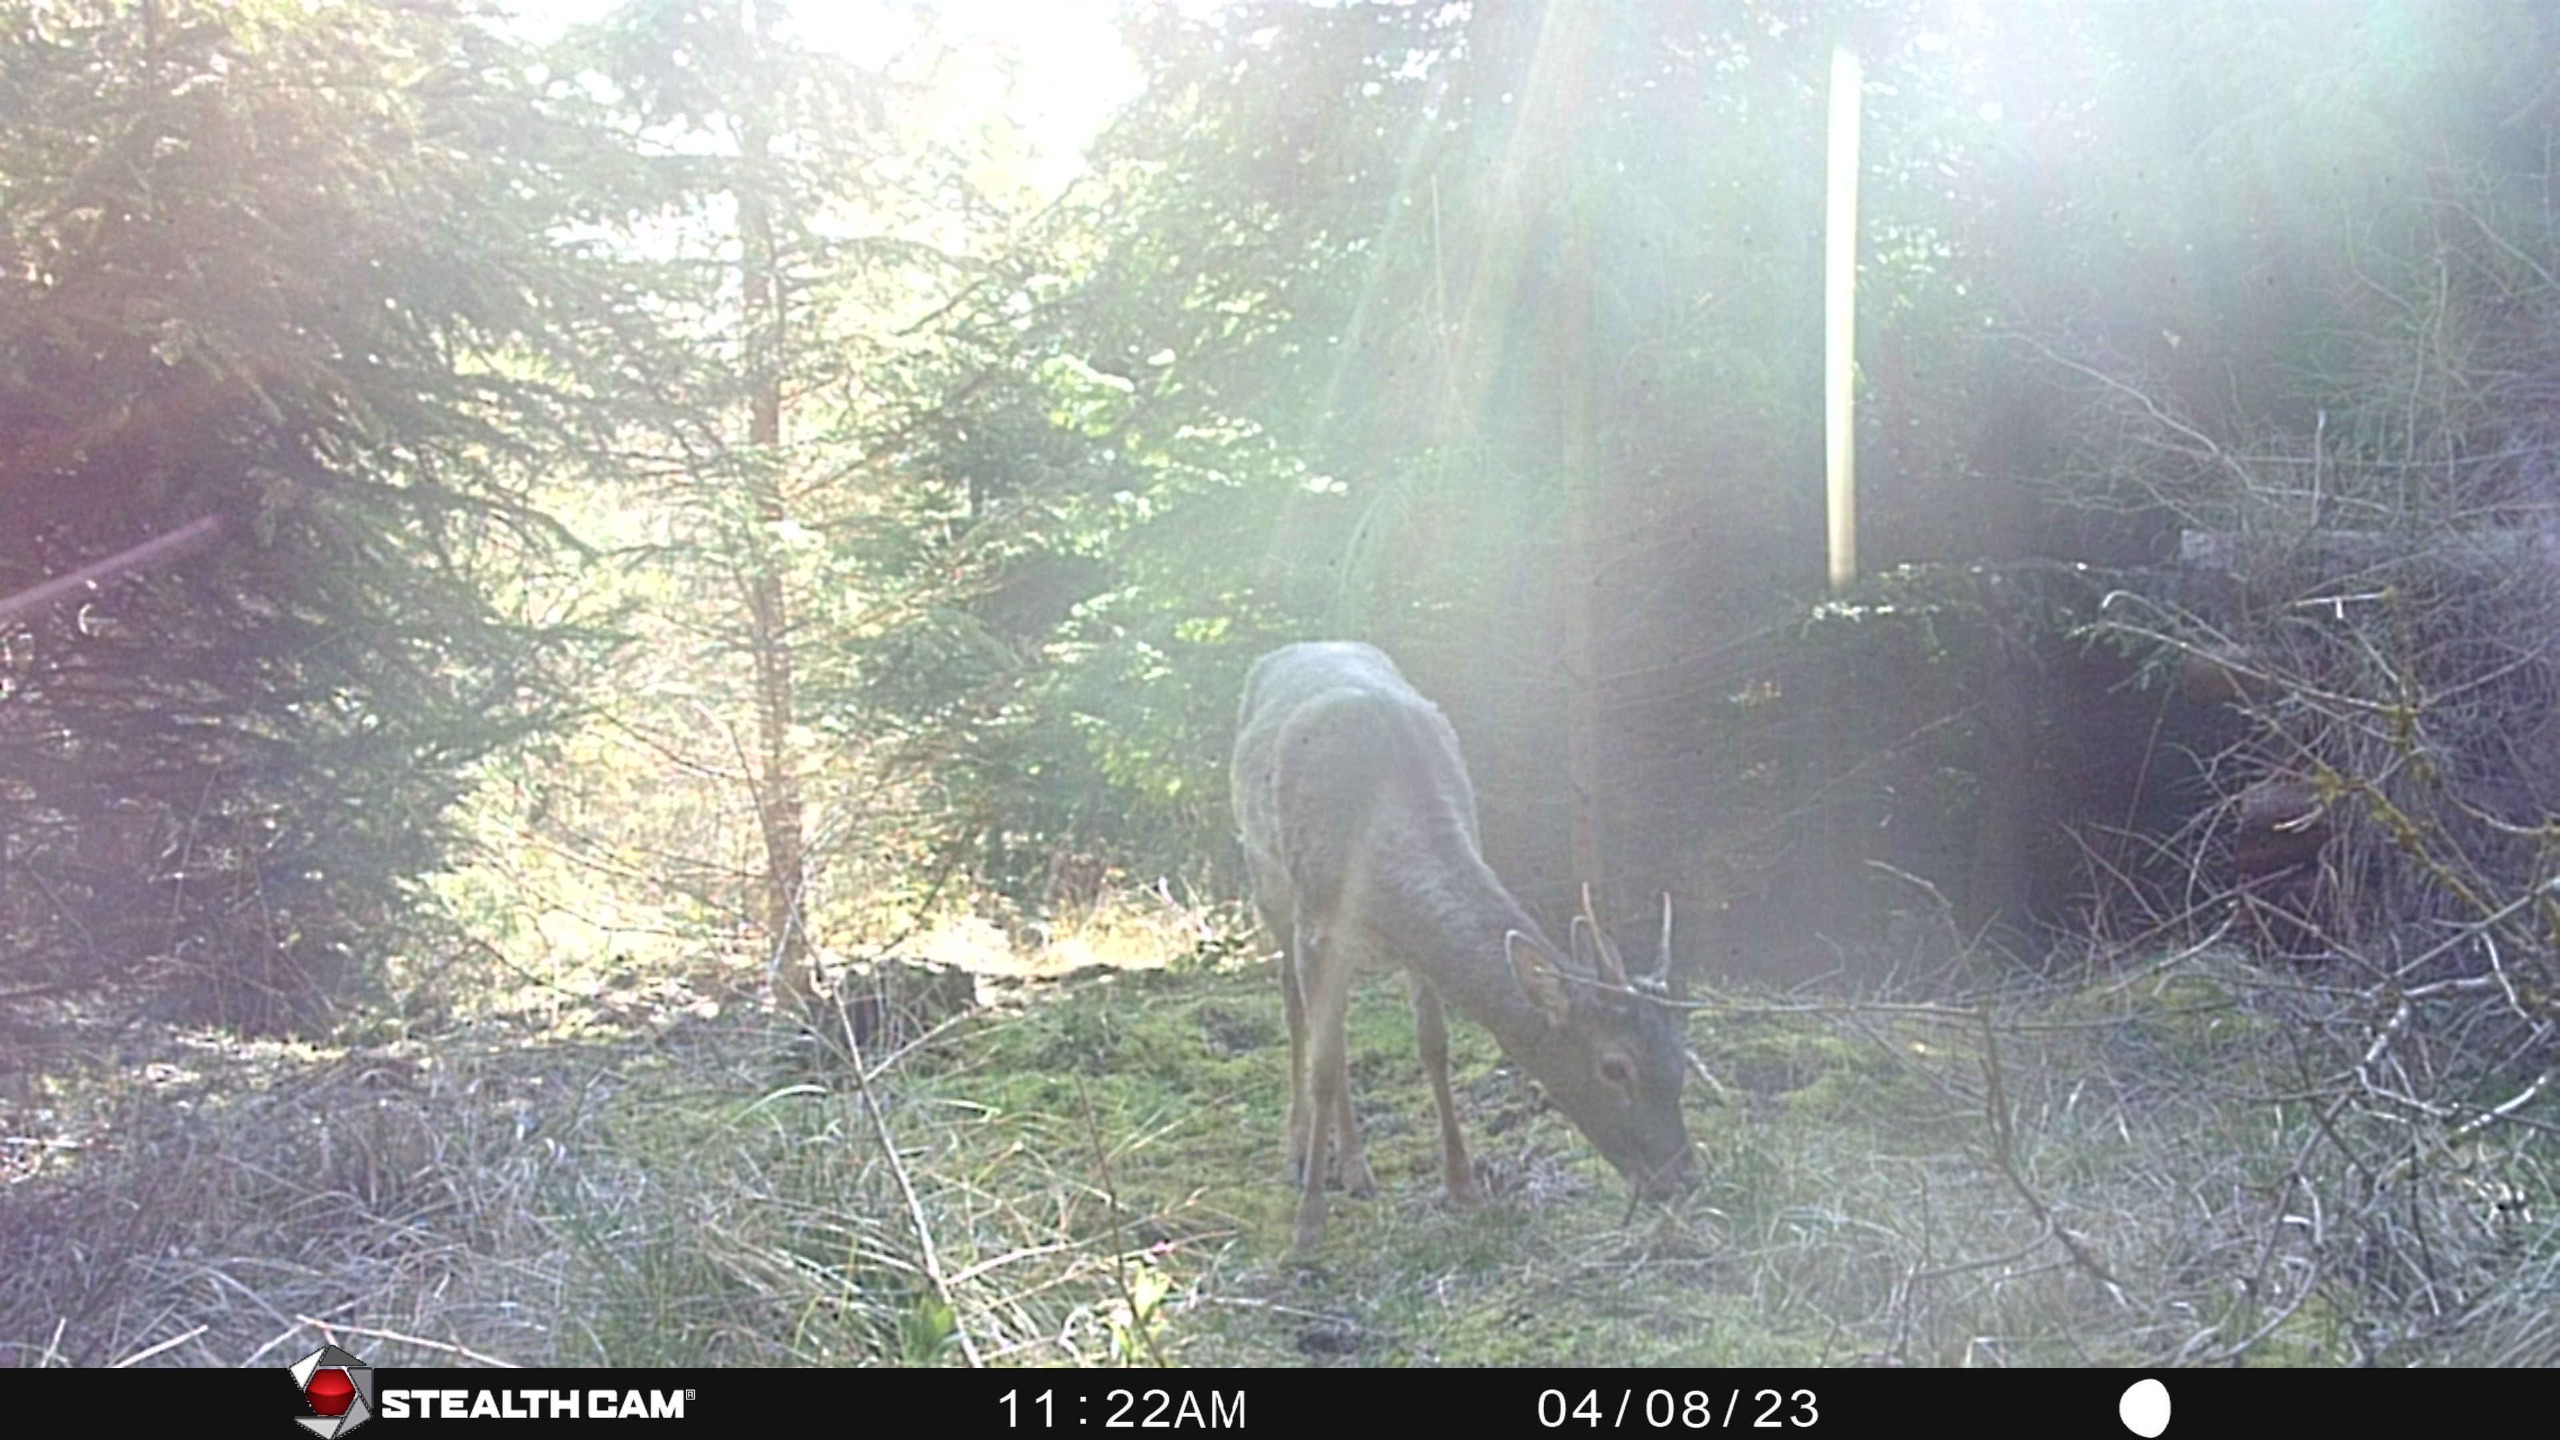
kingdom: Animalia
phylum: Chordata
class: Mammalia
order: Artiodactyla
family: Cervidae
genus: Dama
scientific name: Dama dama
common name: Dådyr
